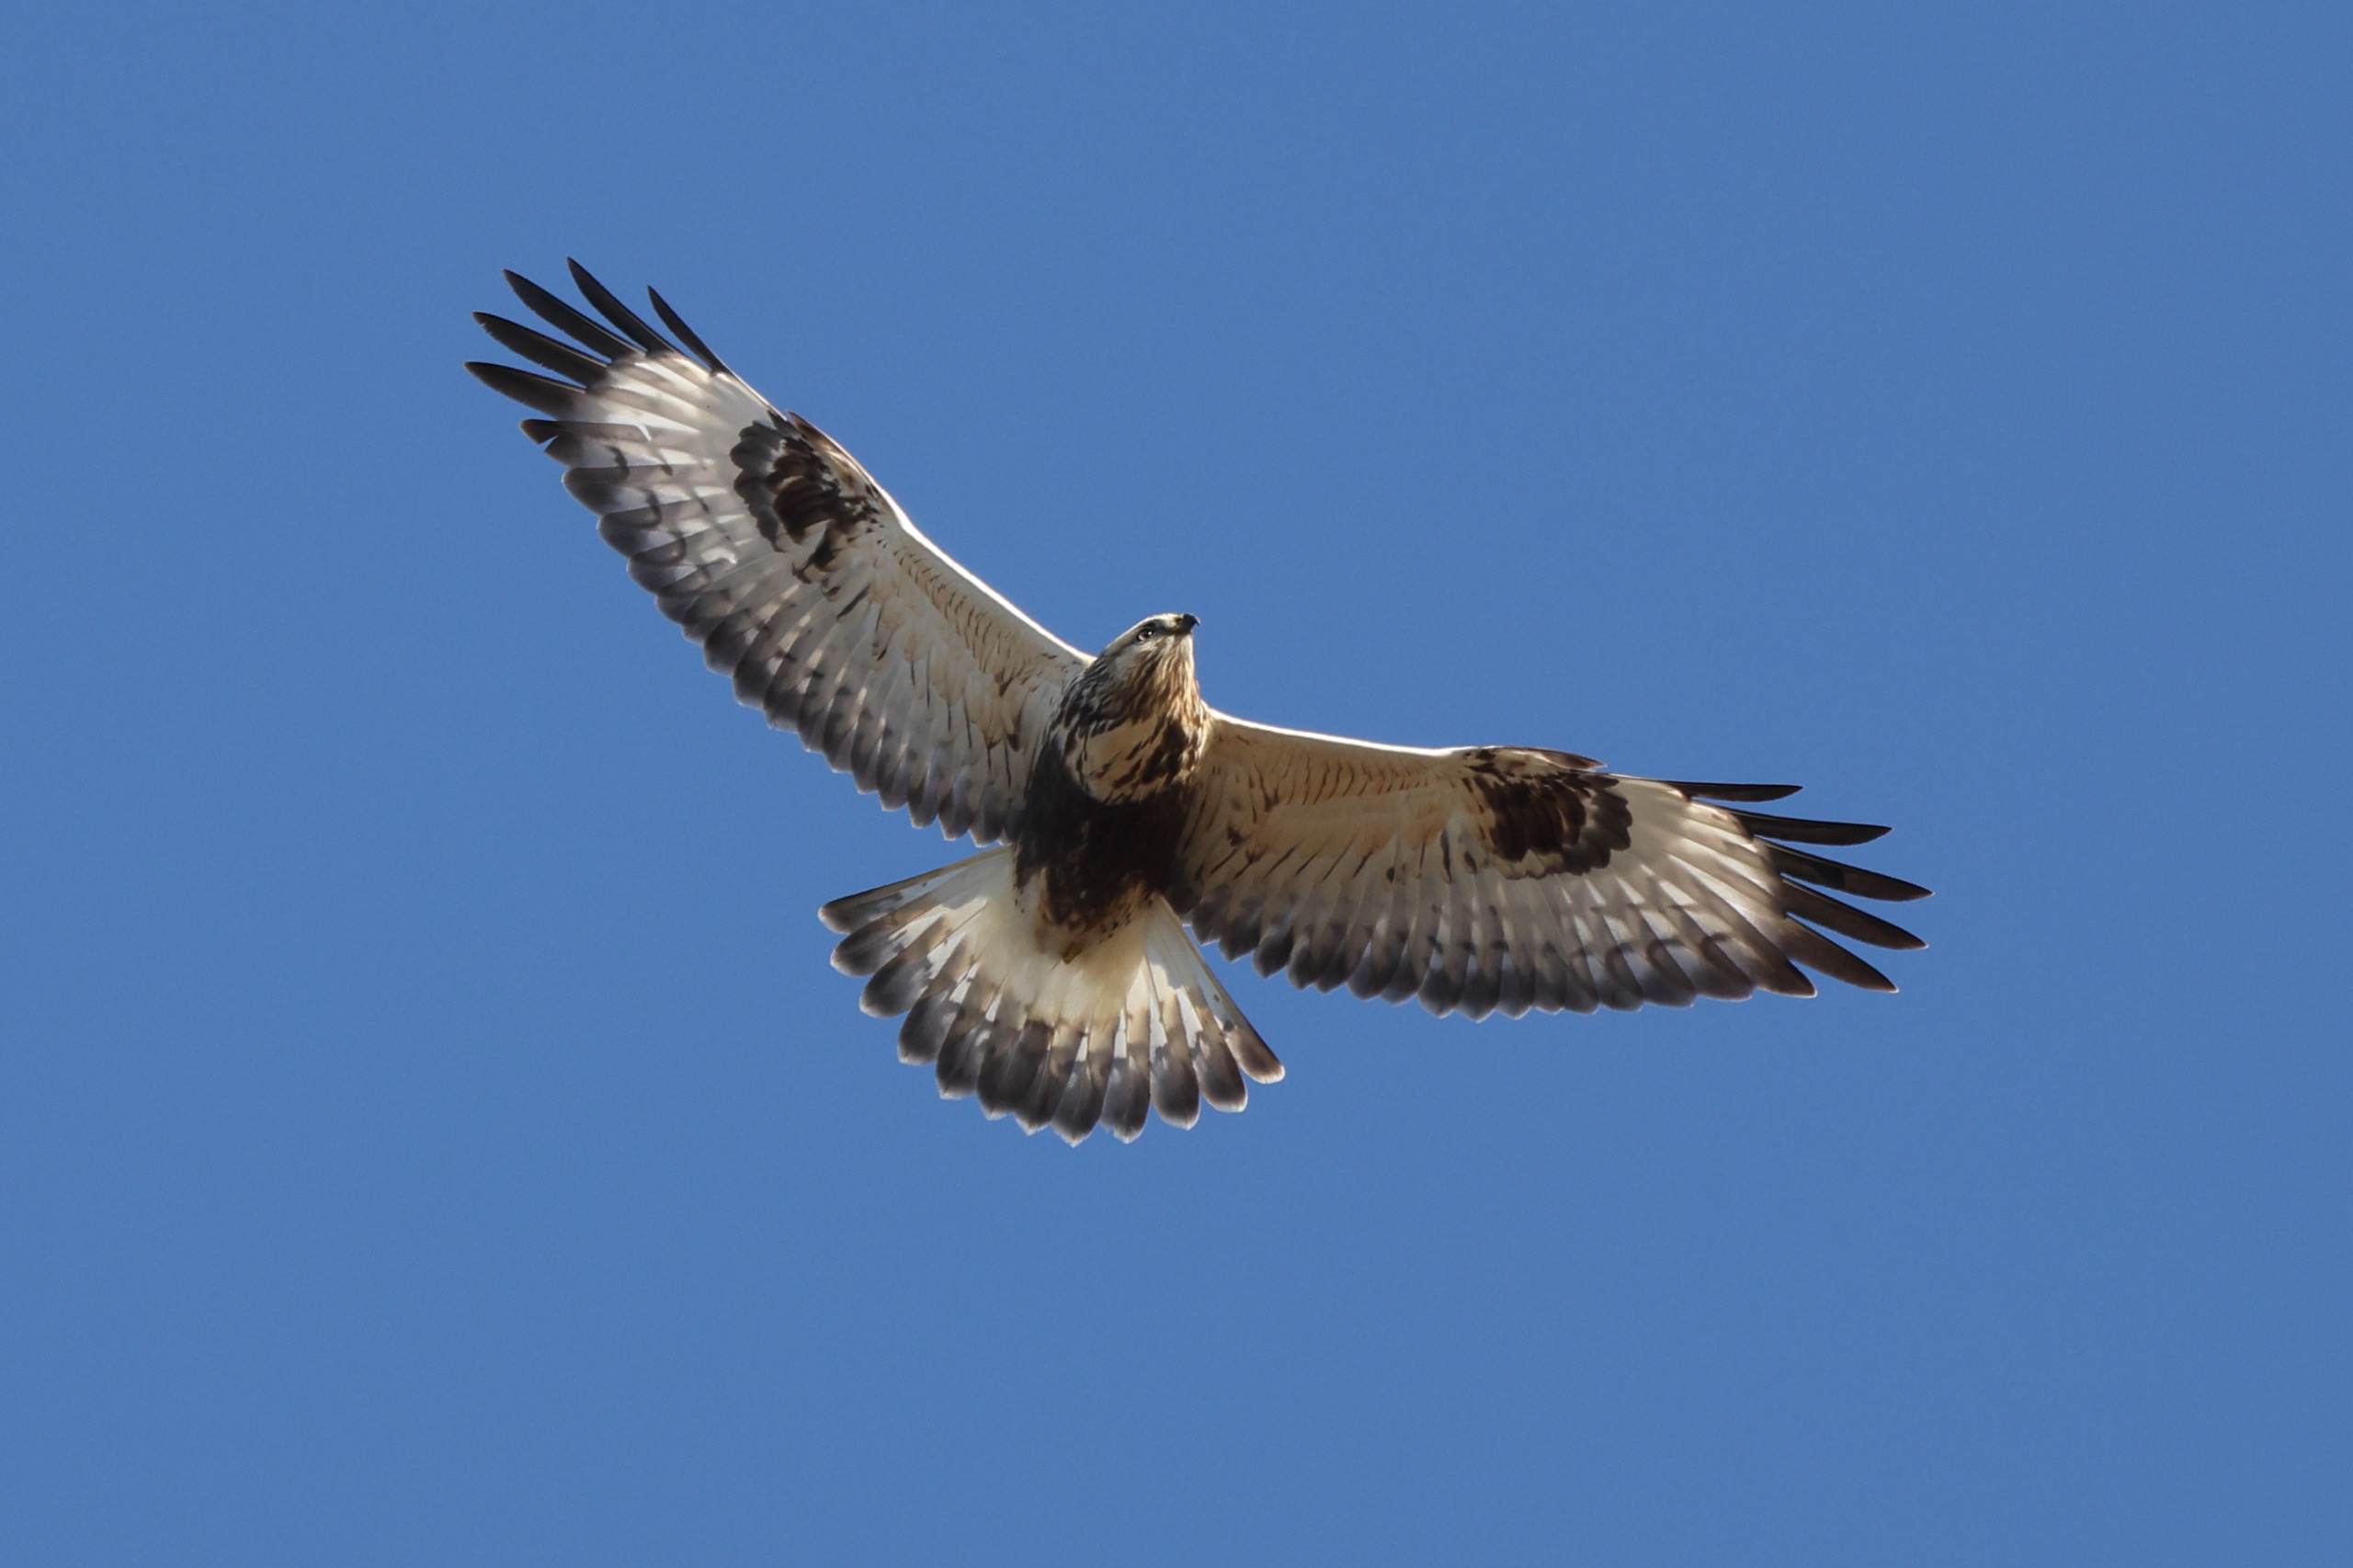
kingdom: Animalia
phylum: Chordata
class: Aves
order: Accipitriformes
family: Accipitridae
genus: Buteo
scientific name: Buteo lagopus
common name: Fjeldvåge
